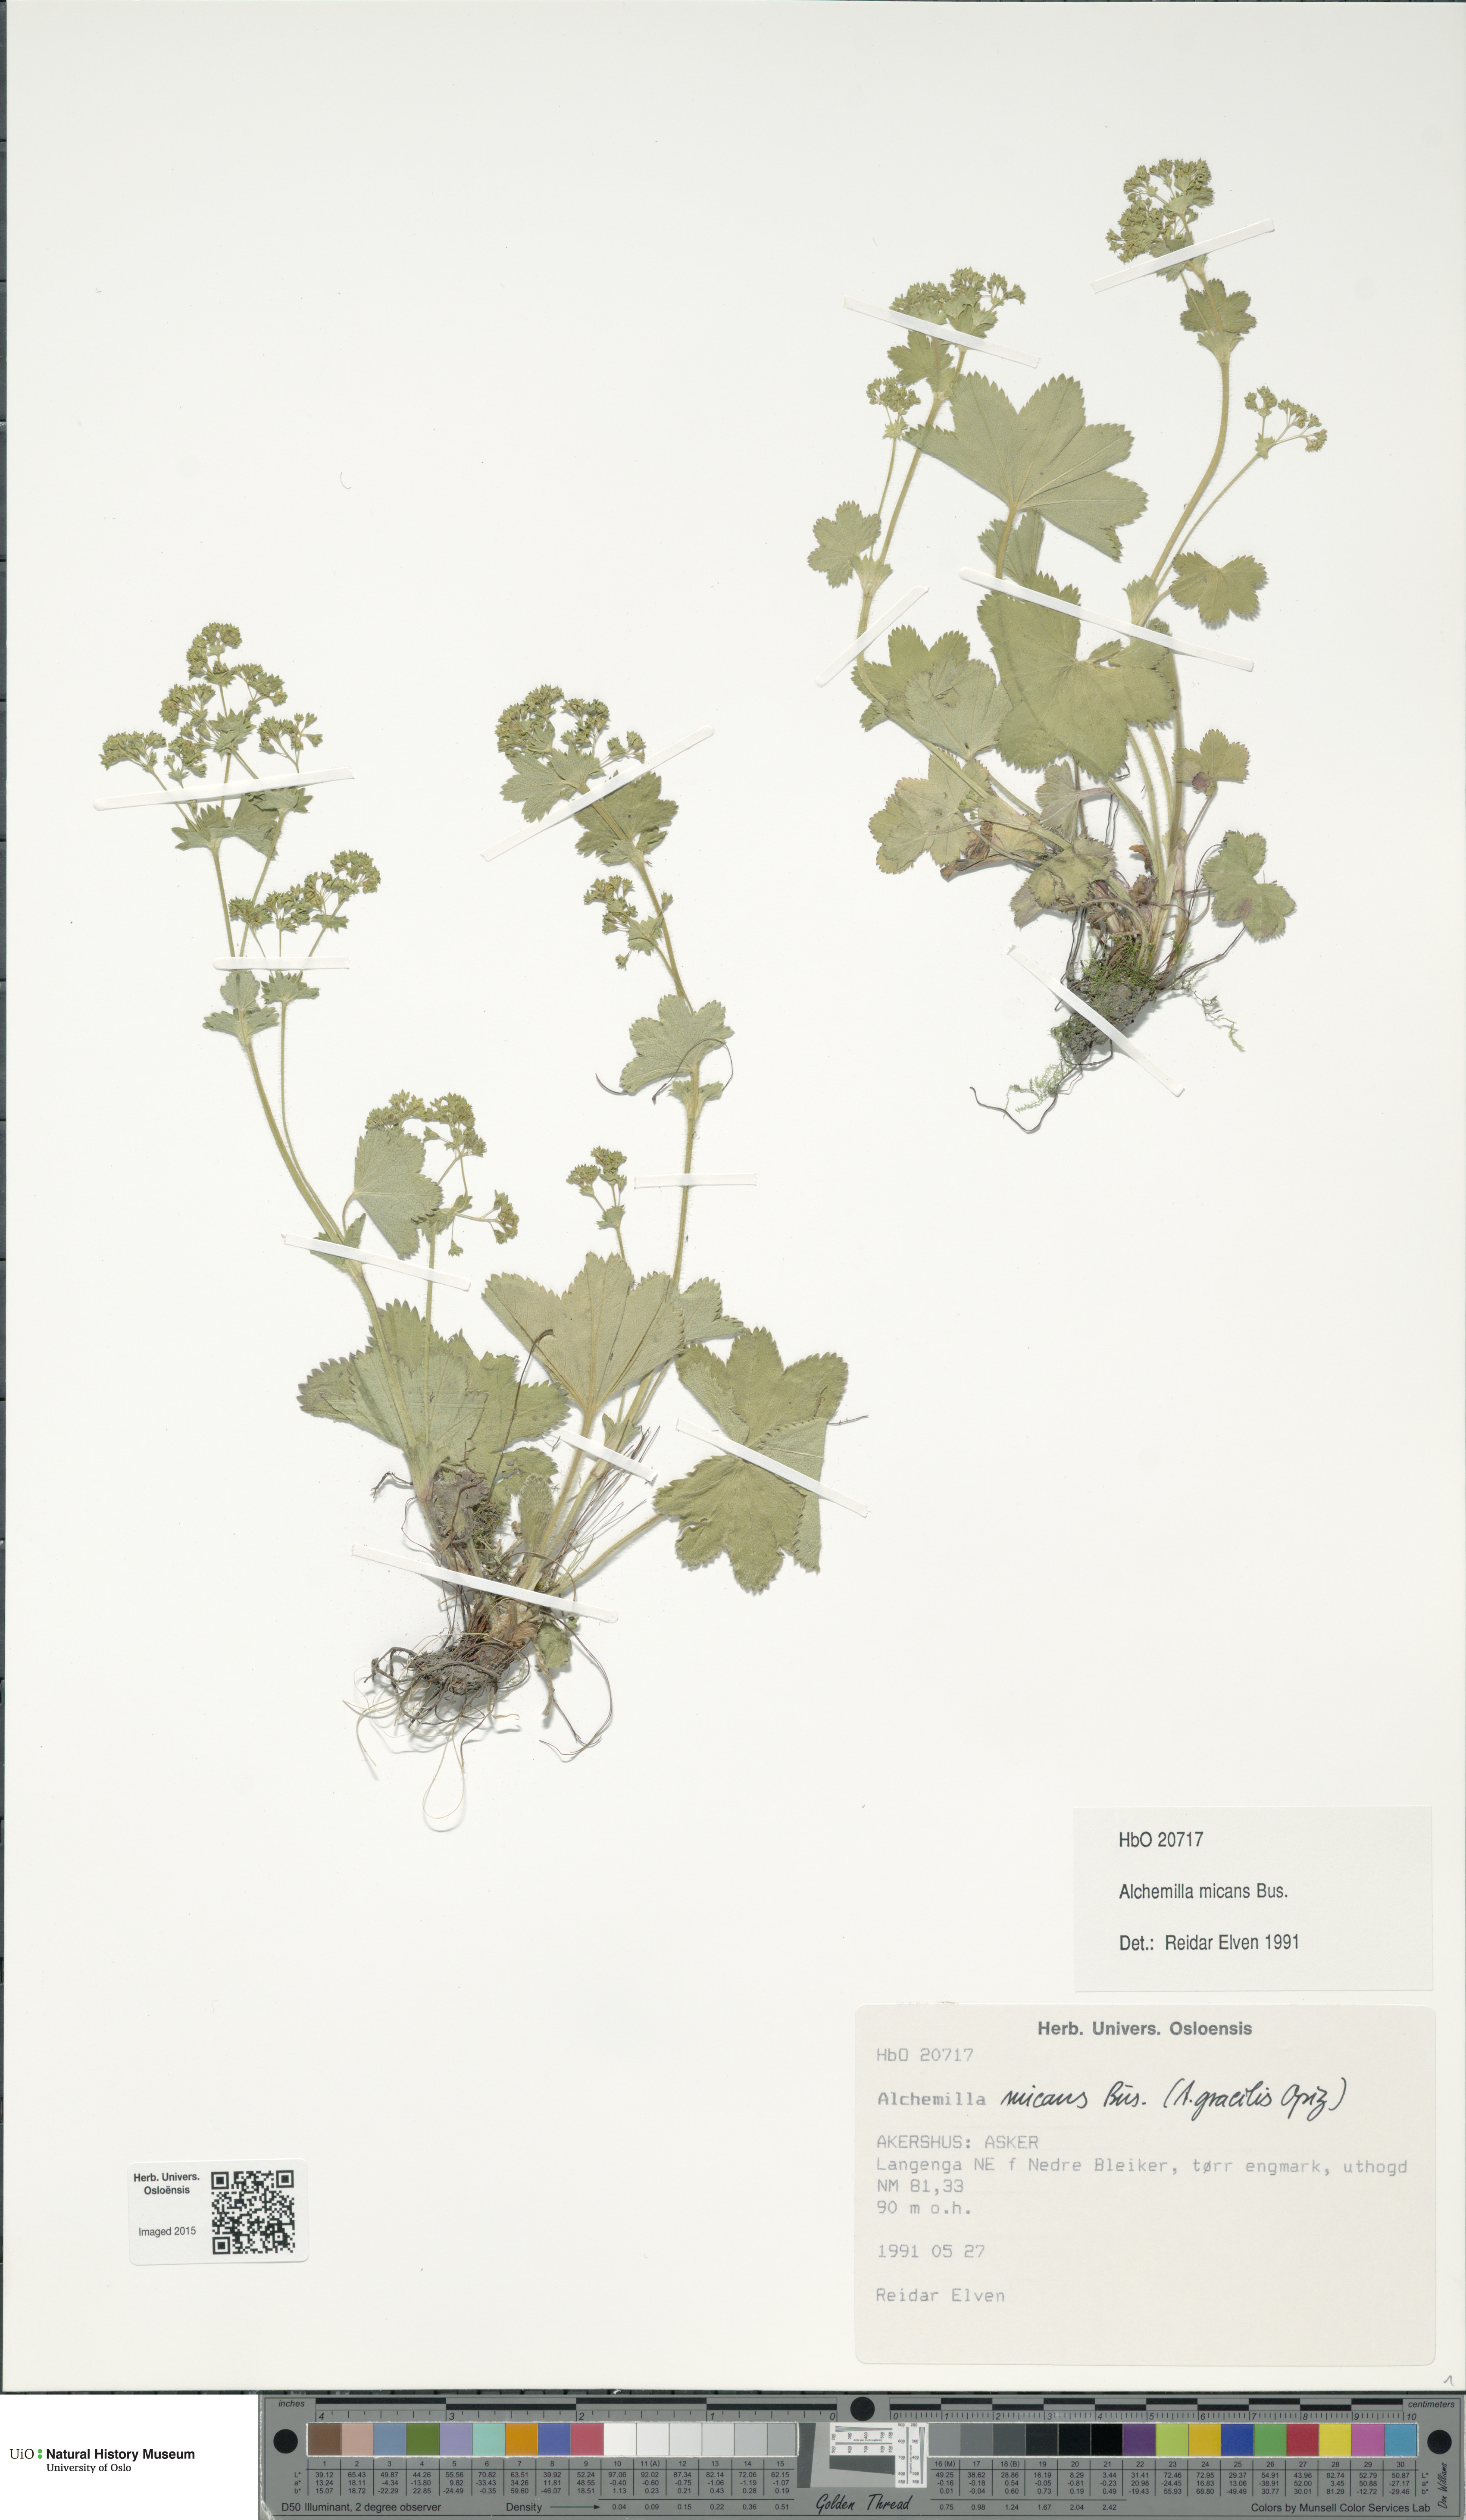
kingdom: Plantae
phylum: Tracheophyta
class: Magnoliopsida
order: Rosales
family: Rosaceae
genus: Alchemilla
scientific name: Alchemilla micans
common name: Gleaming lady's mantle
